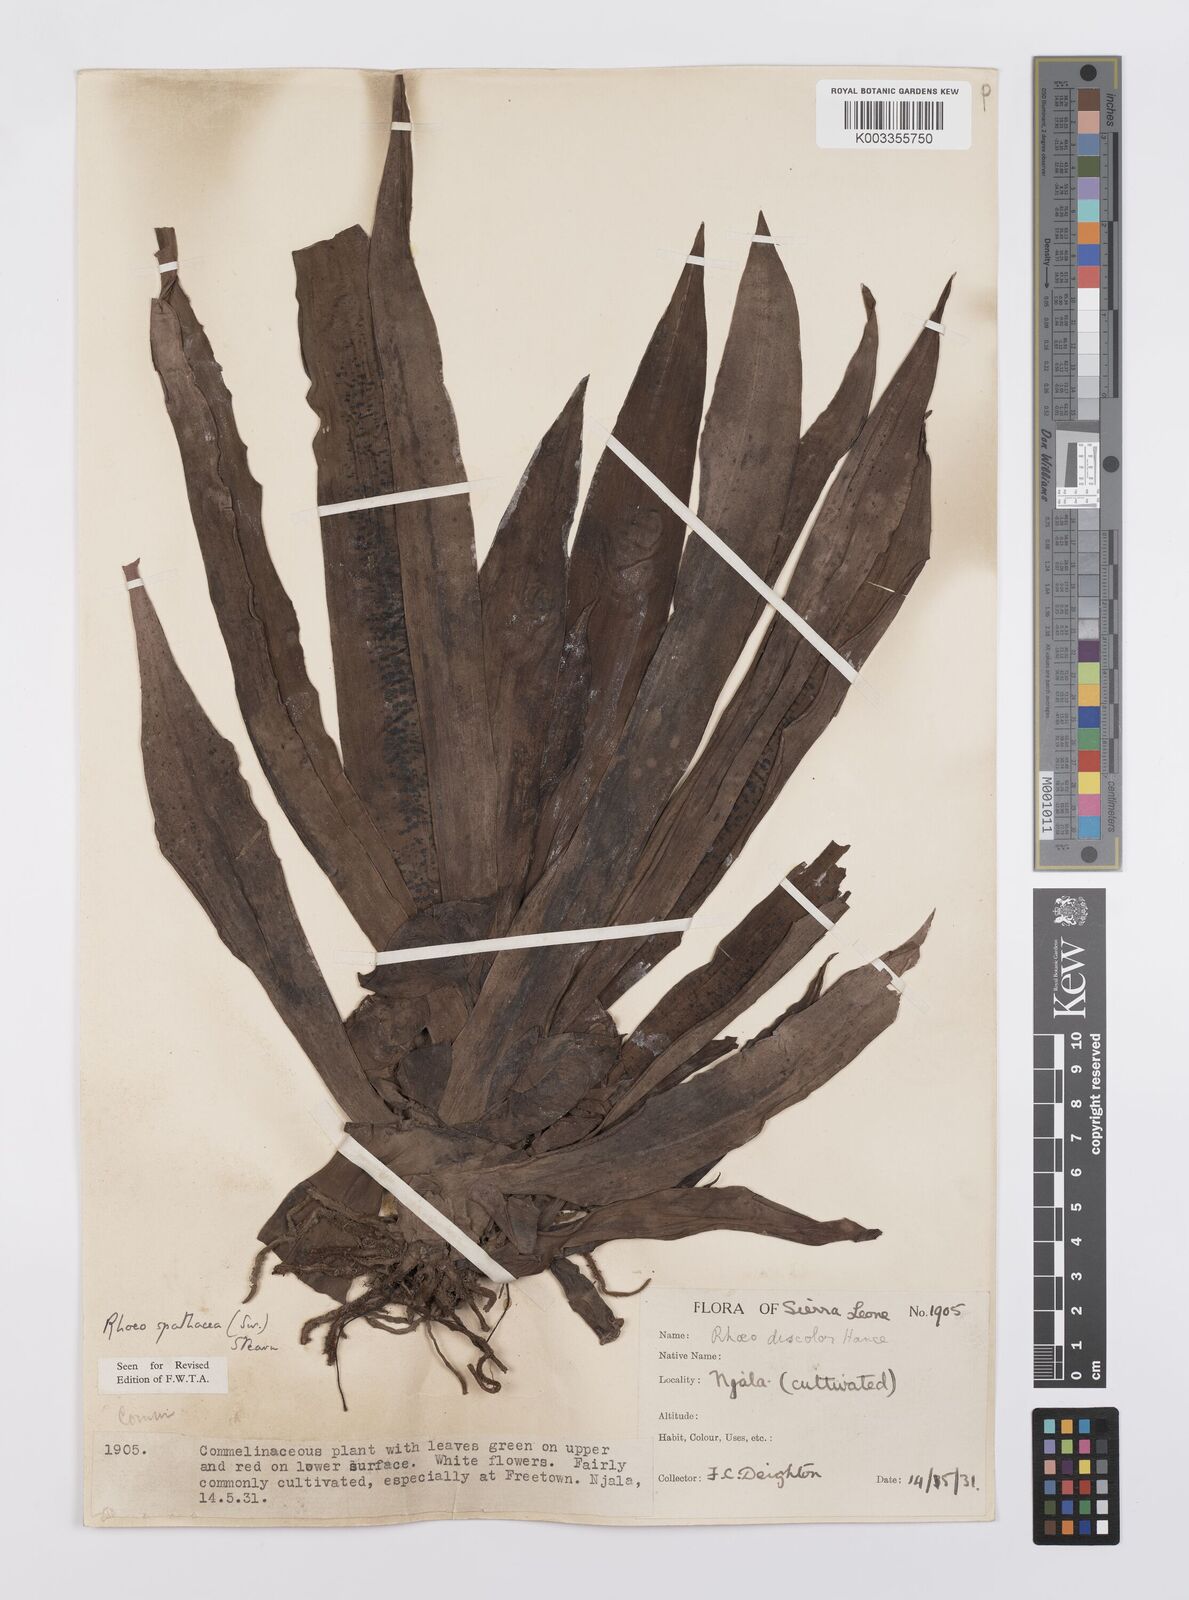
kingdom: Plantae
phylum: Tracheophyta
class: Liliopsida
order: Commelinales
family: Commelinaceae
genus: Tradescantia
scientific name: Tradescantia spathacea
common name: Boatlily
